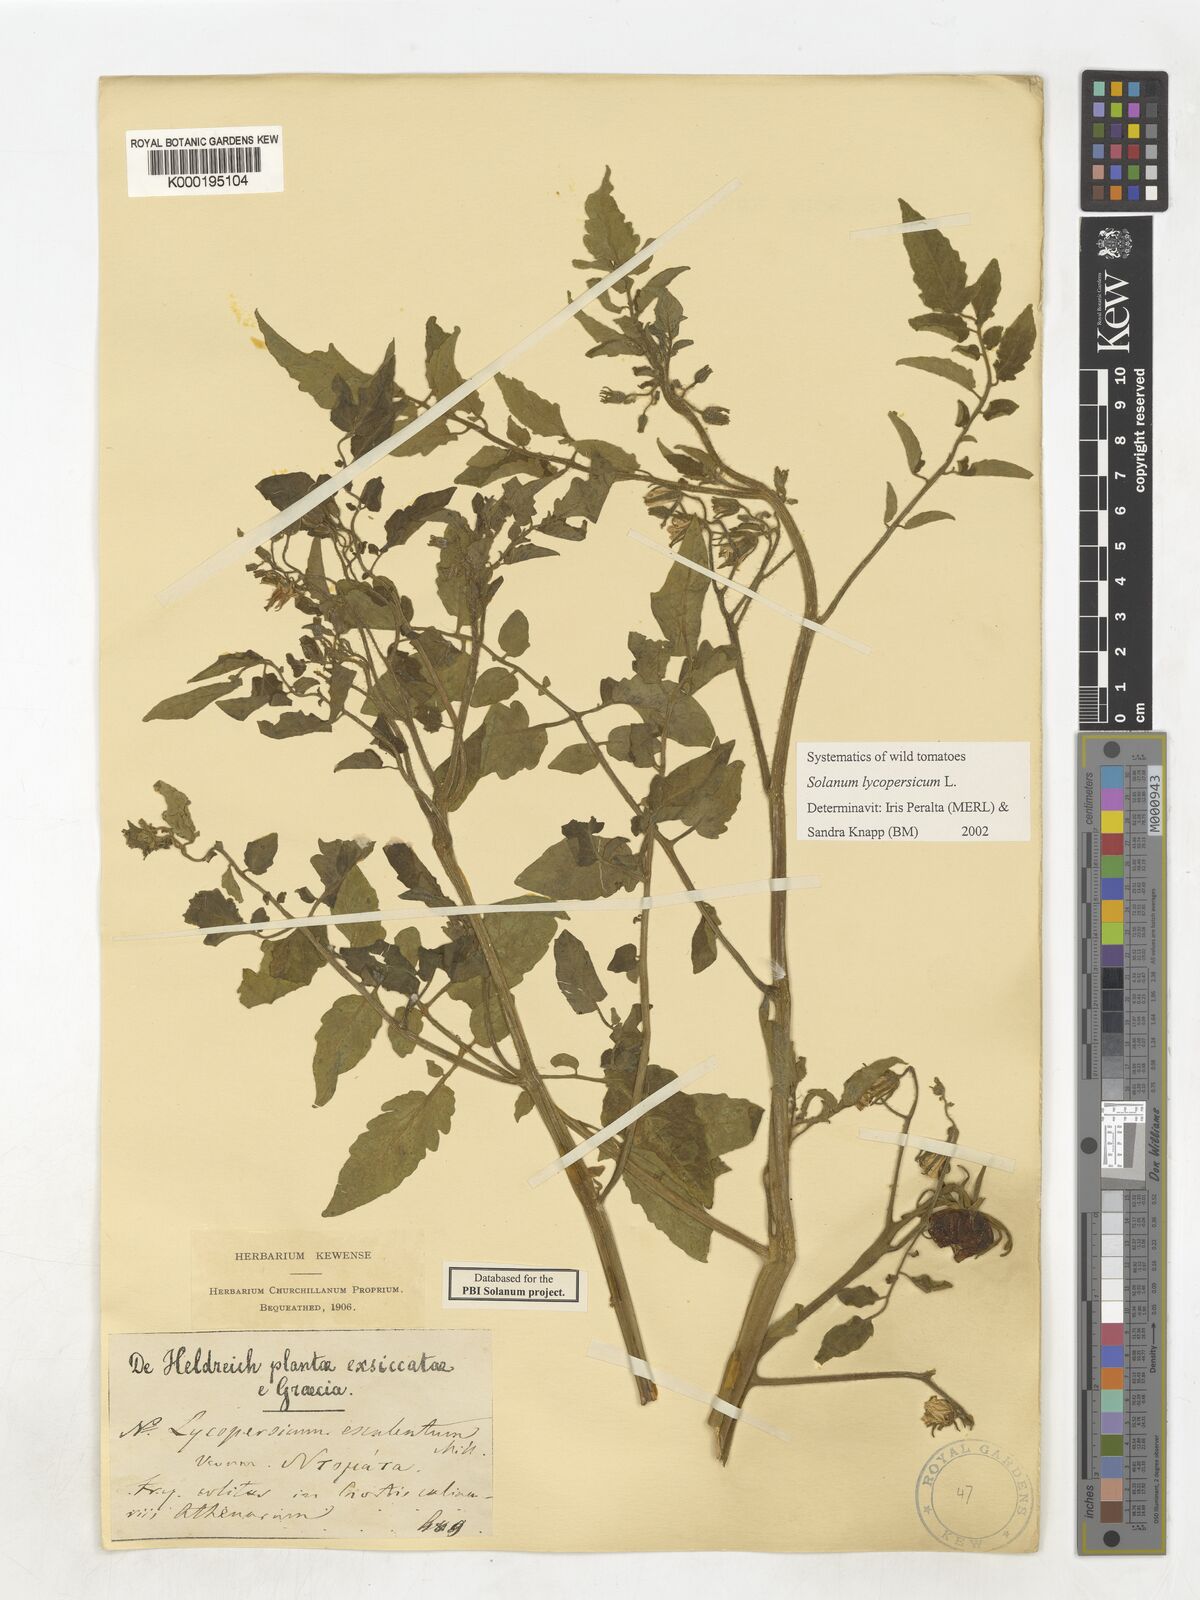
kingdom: Plantae
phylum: Tracheophyta
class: Magnoliopsida
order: Solanales
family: Solanaceae
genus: Solanum
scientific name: Solanum lycopersicum
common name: Garden tomato
